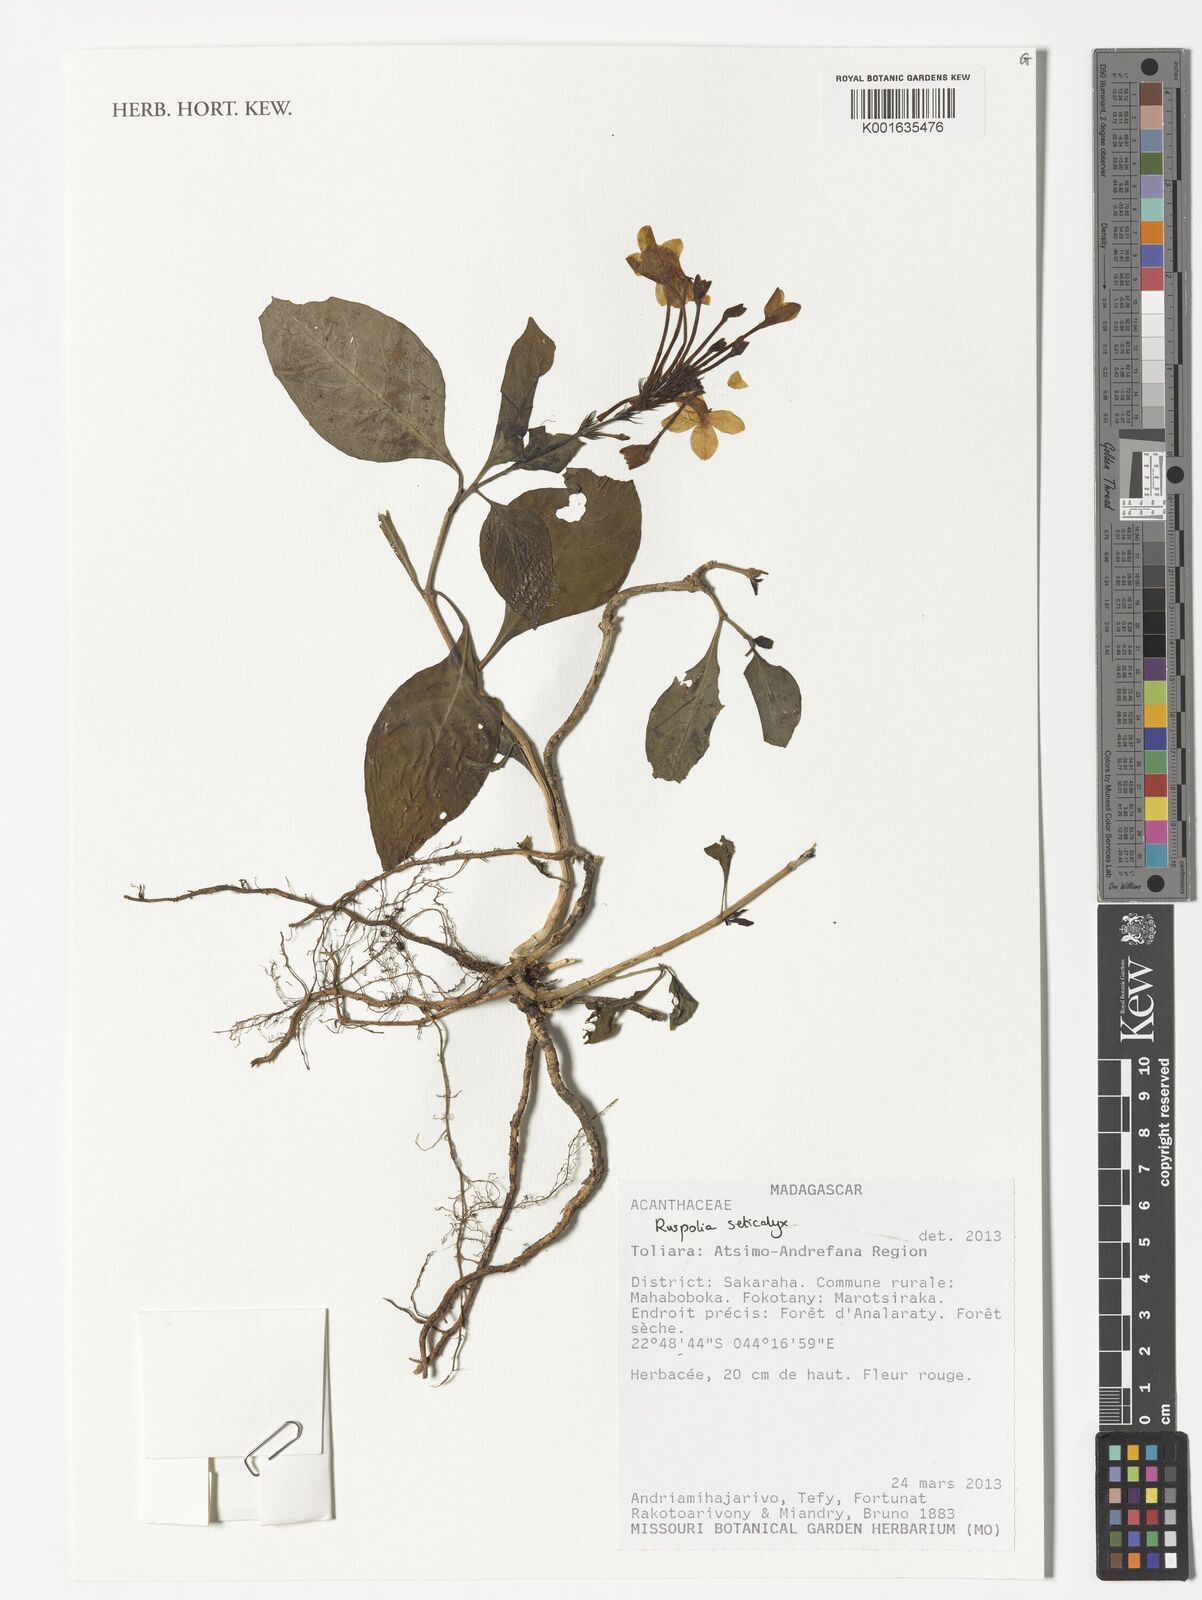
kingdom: Plantae
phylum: Tracheophyta
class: Magnoliopsida
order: Lamiales
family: Acanthaceae
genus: Ruspolia
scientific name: Ruspolia seticalyx
